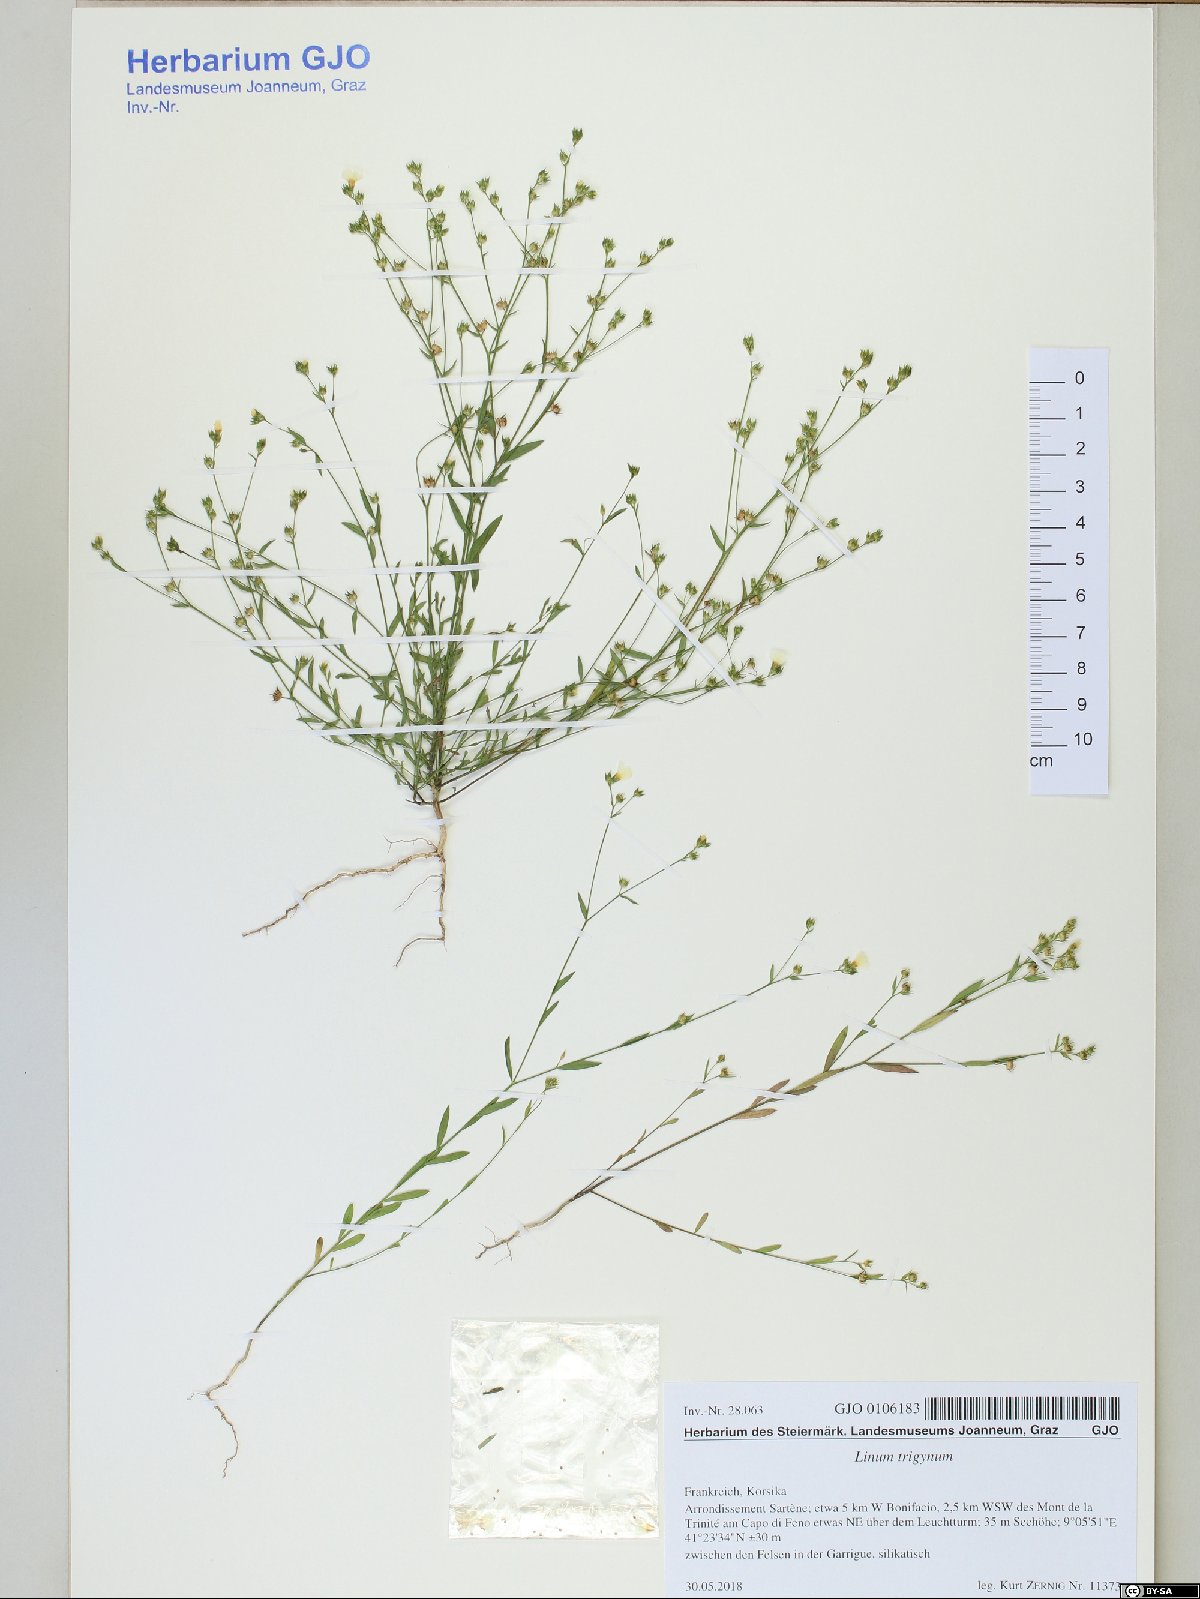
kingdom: Plantae
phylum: Tracheophyta
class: Magnoliopsida
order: Malpighiales
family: Linaceae
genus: Linum
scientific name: Linum trigynum
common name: French flax
